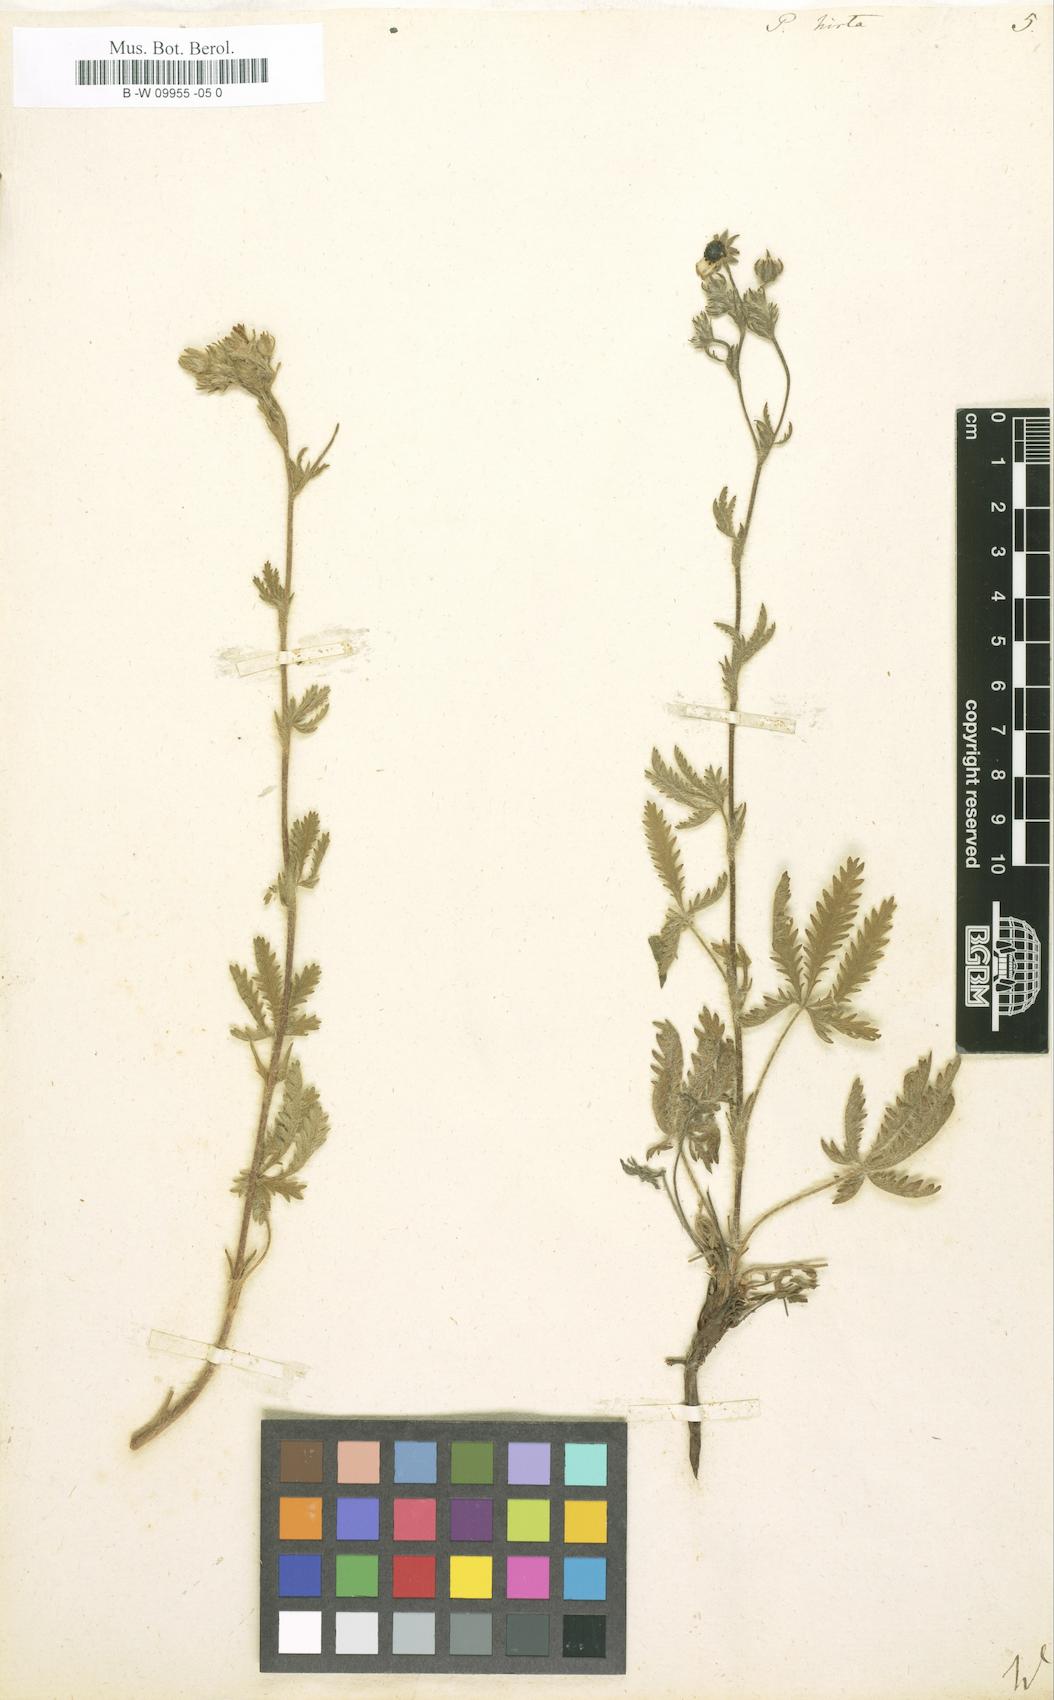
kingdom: Plantae
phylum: Tracheophyta
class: Magnoliopsida
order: Rosales
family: Rosaceae
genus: Potentilla
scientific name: Potentilla hirta
